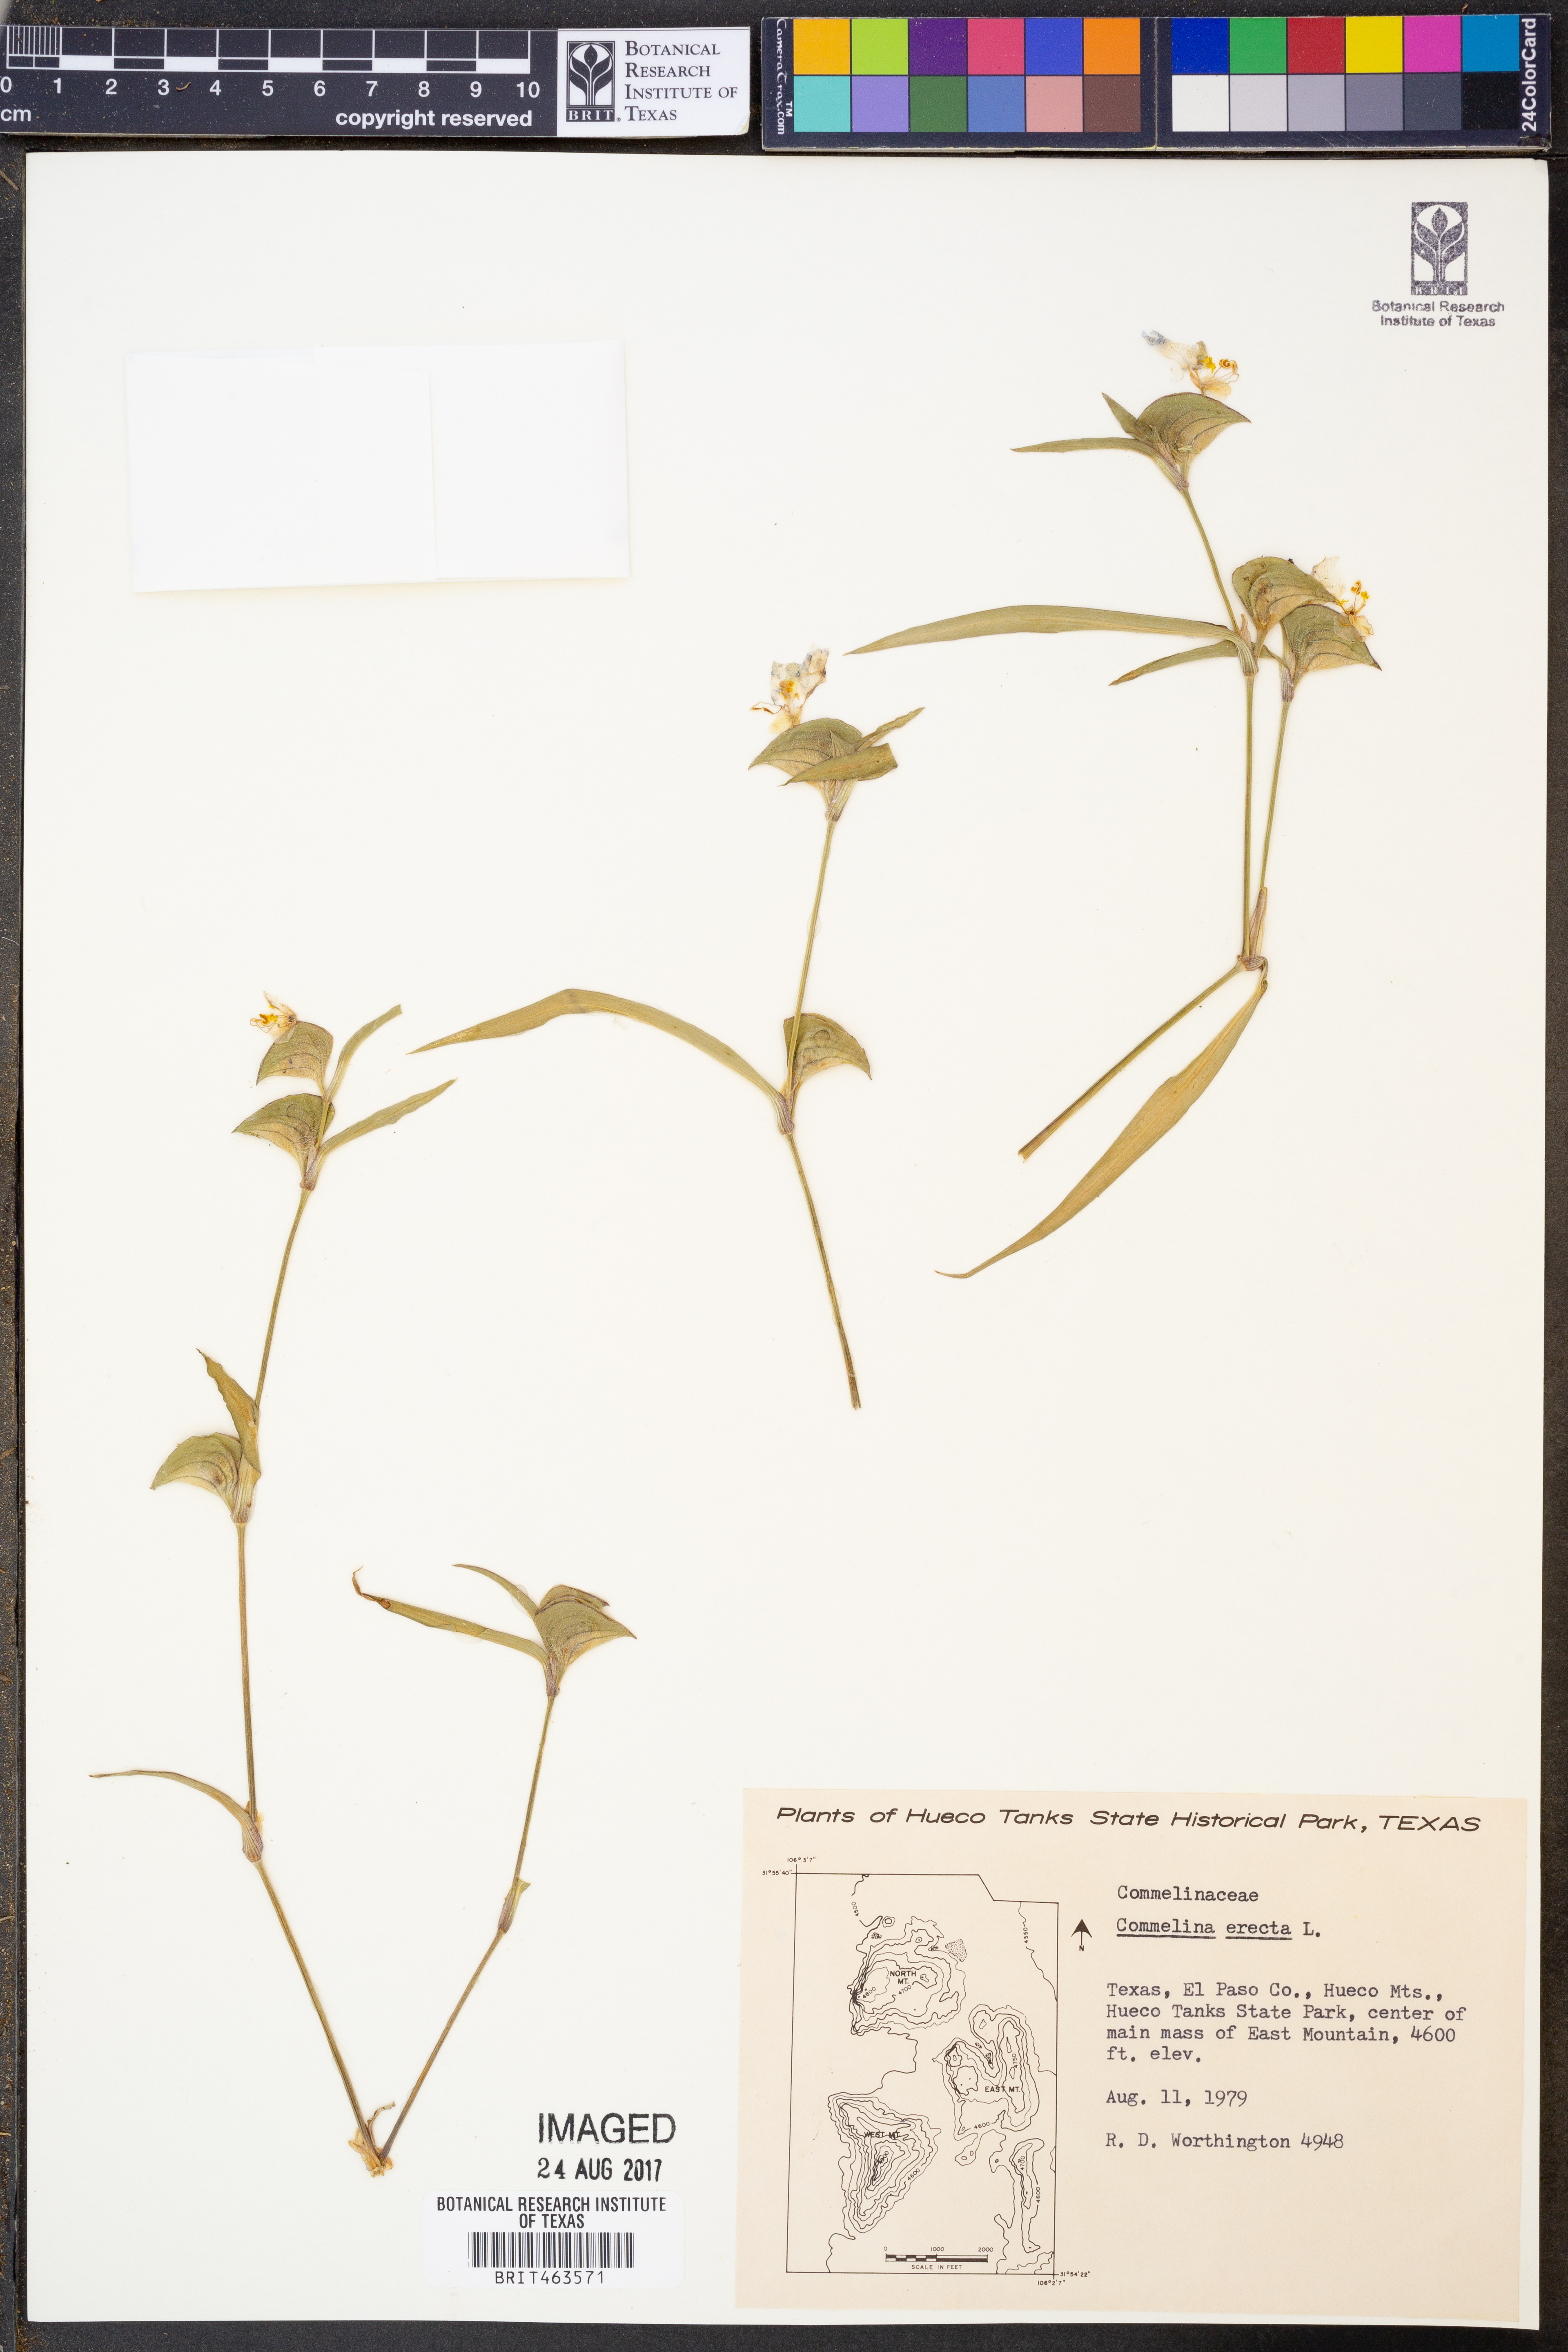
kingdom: Plantae
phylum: Tracheophyta
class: Liliopsida
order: Commelinales
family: Commelinaceae
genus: Commelina
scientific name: Commelina erecta
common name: Blousel blommetjie
